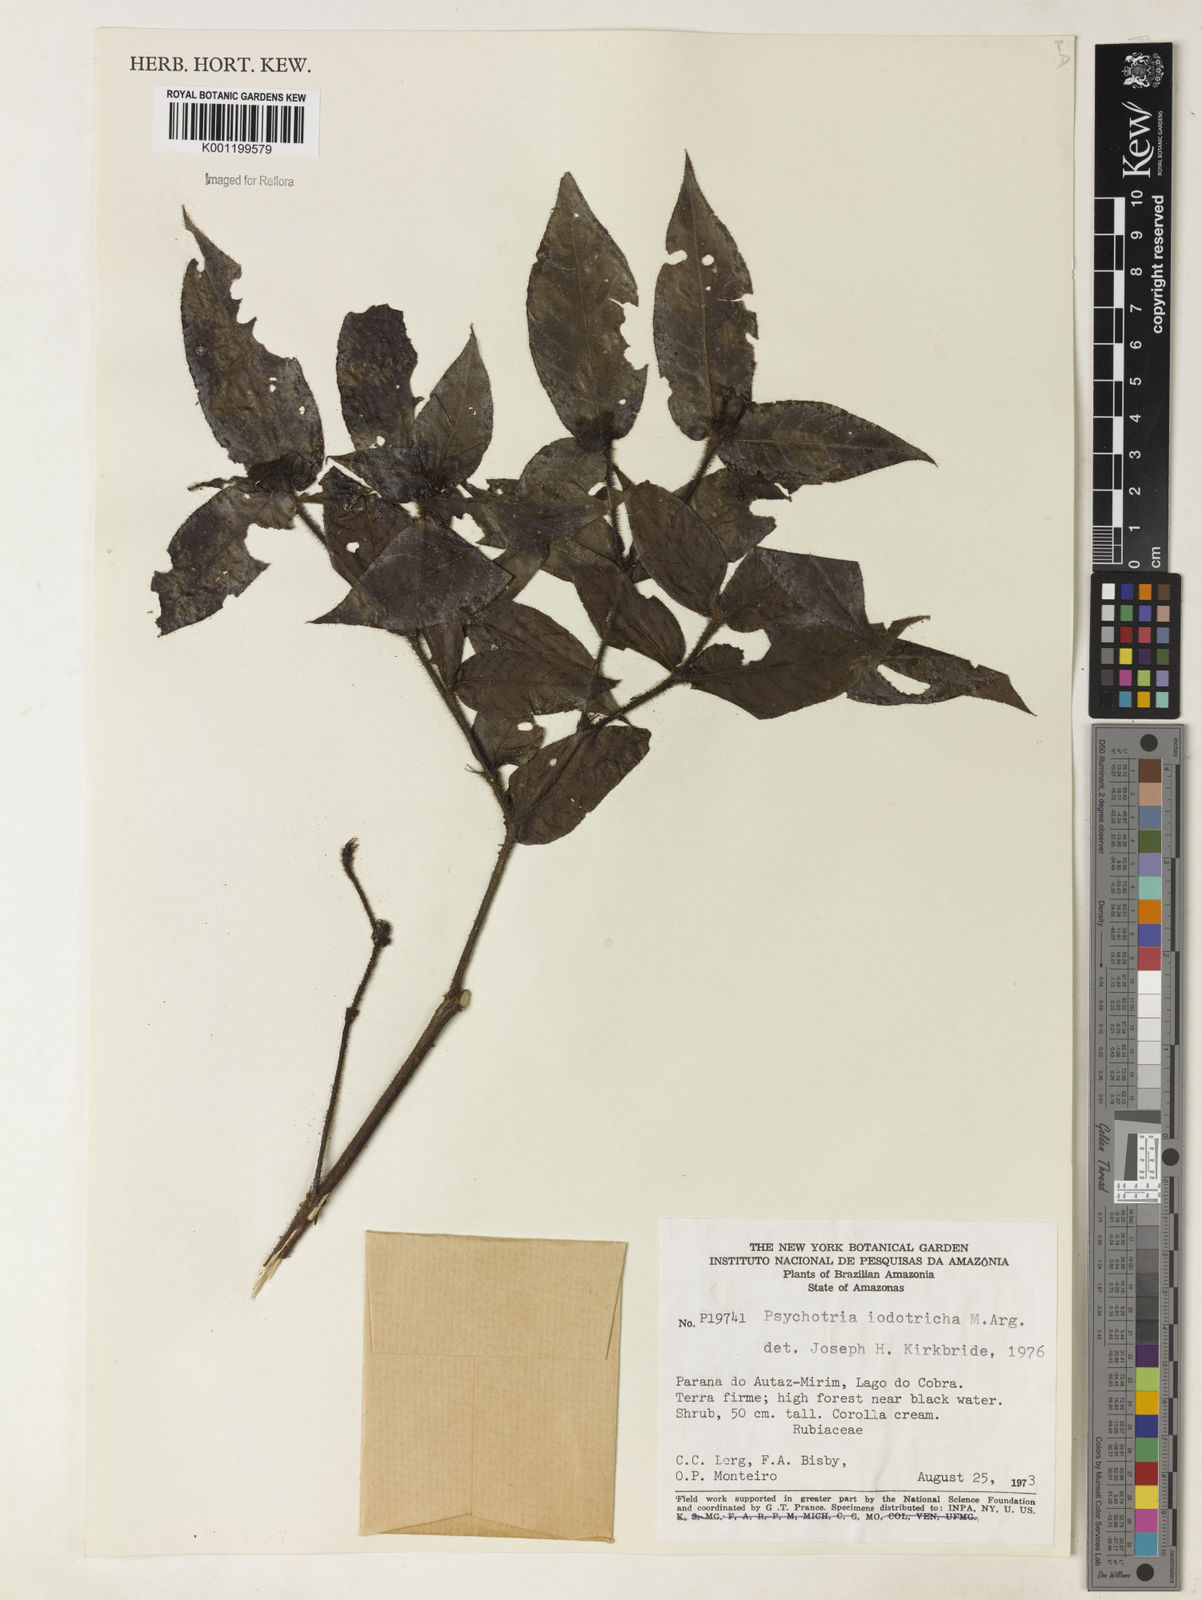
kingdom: Plantae
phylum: Tracheophyta
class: Magnoliopsida
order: Gentianales
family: Rubiaceae
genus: Psychotria
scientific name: Psychotria
